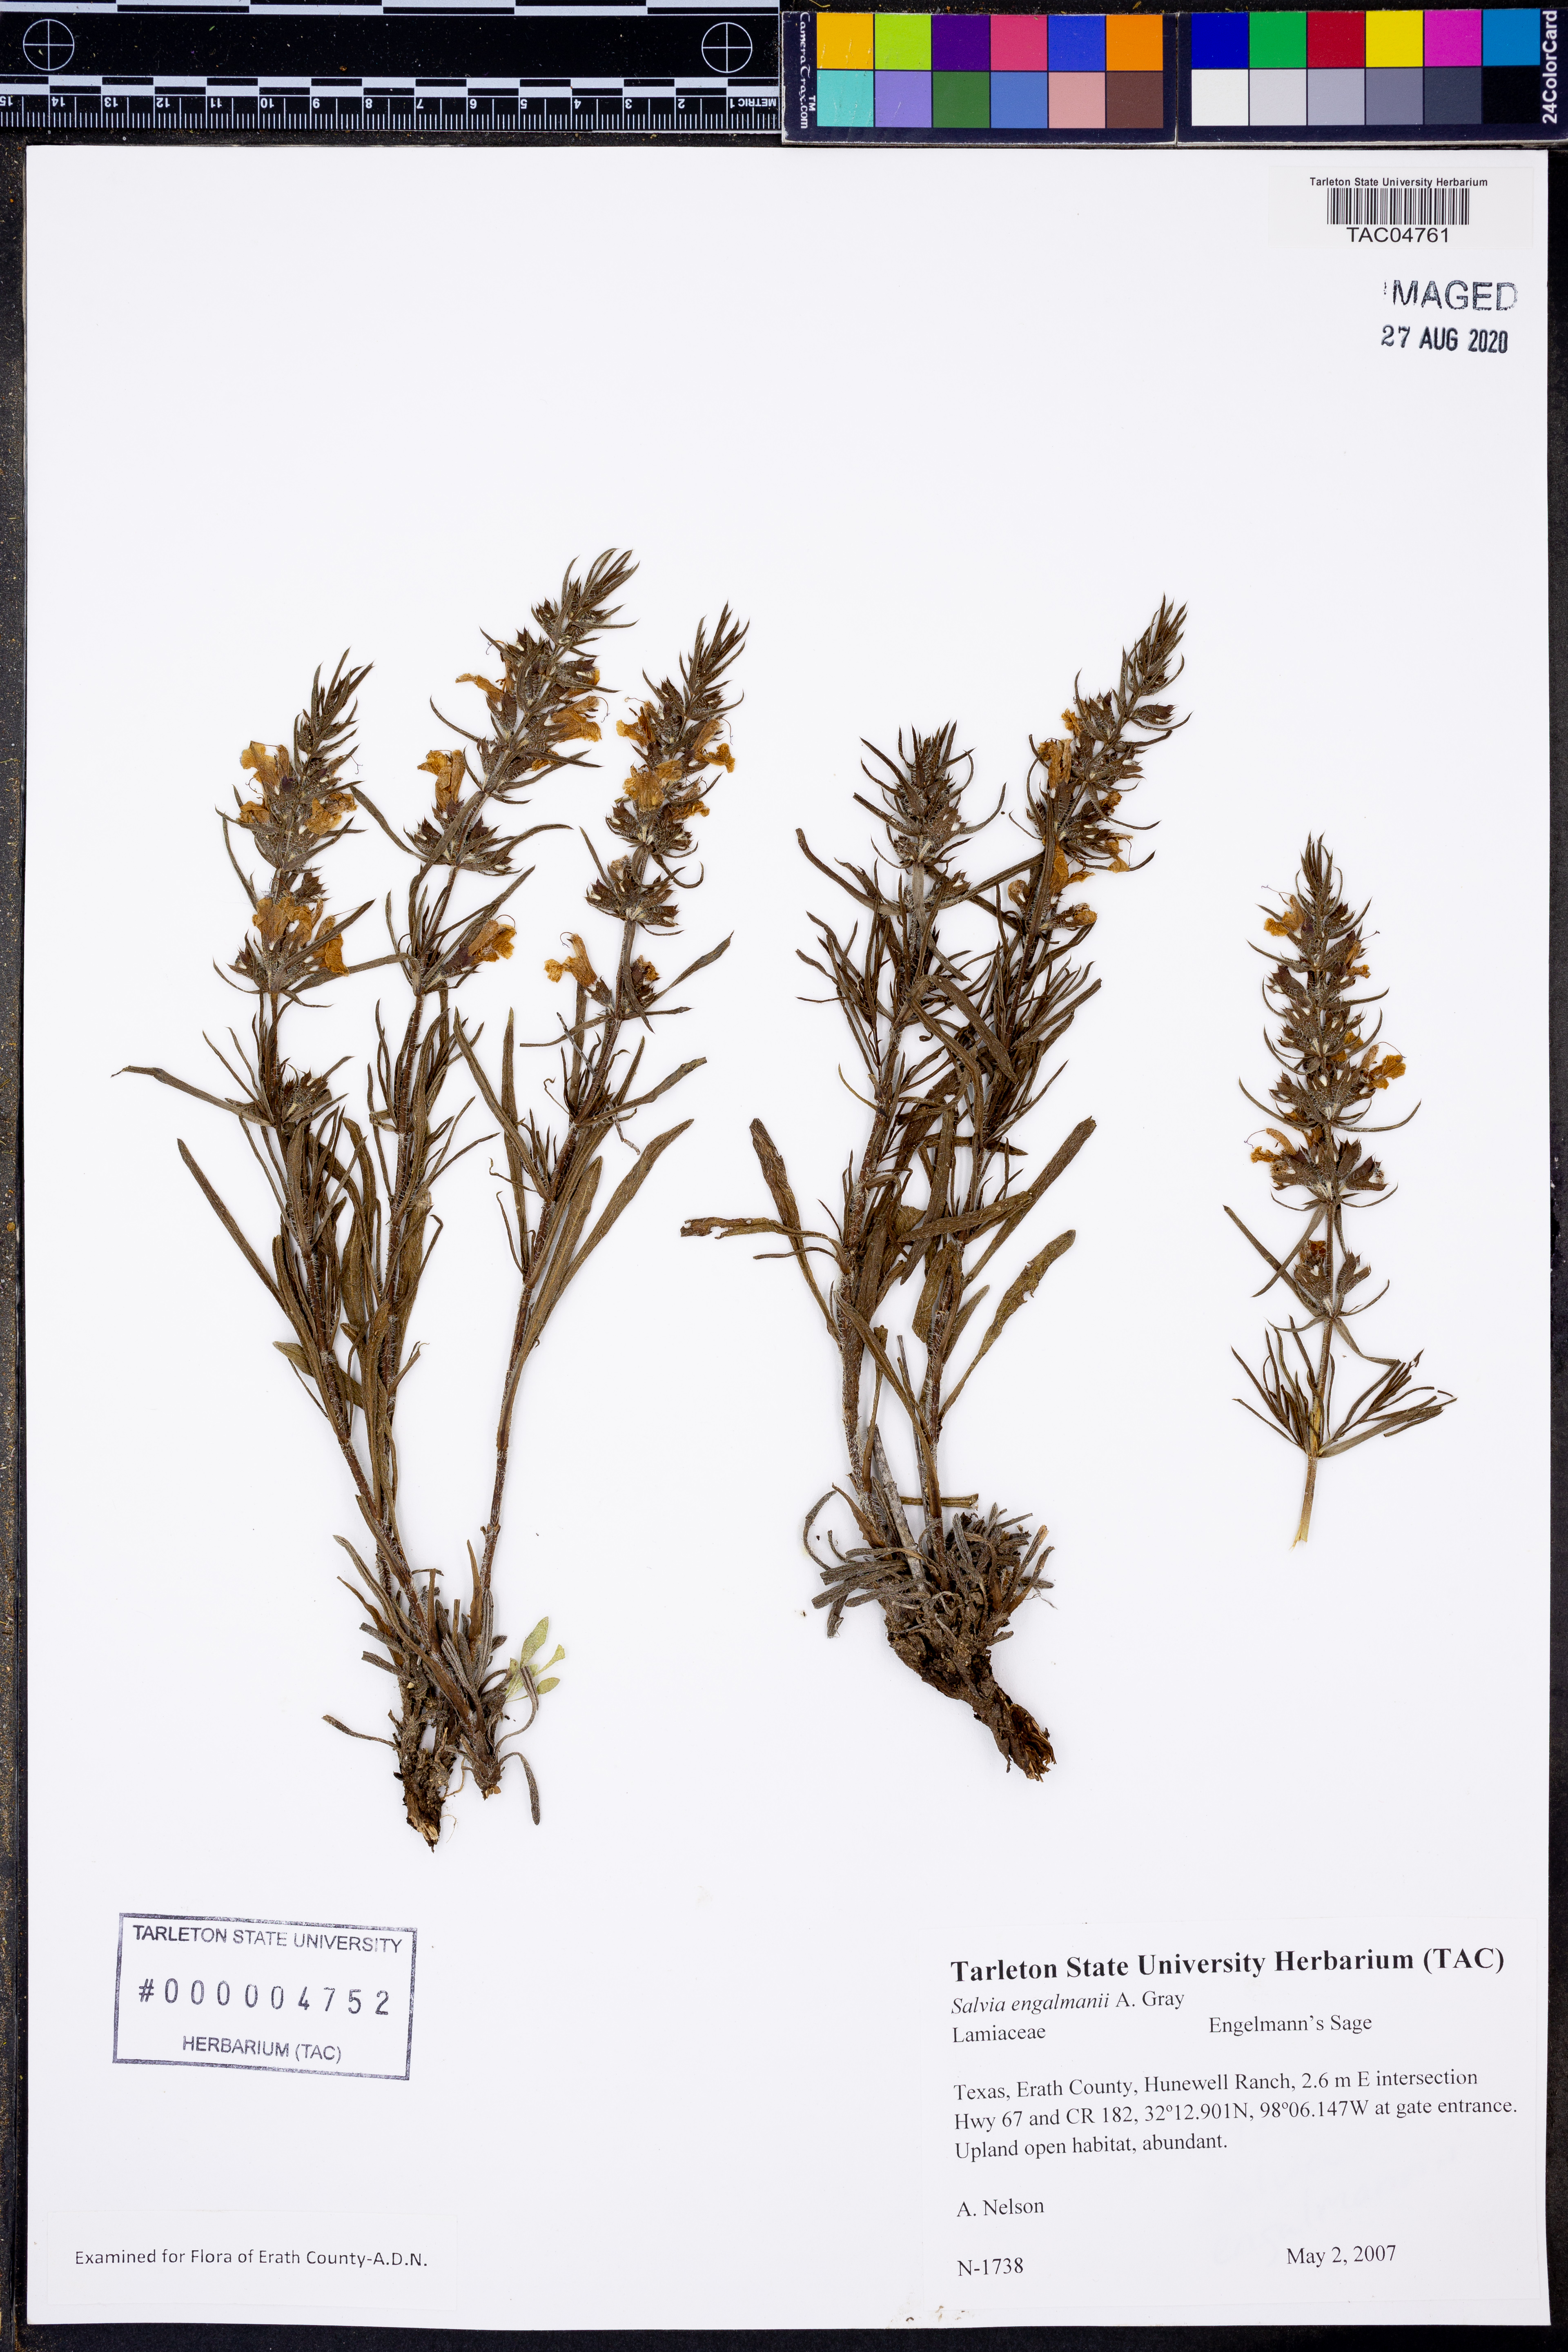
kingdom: Plantae
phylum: Tracheophyta
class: Magnoliopsida
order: Lamiales
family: Lamiaceae
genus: Salvia
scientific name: Salvia engelmannii
